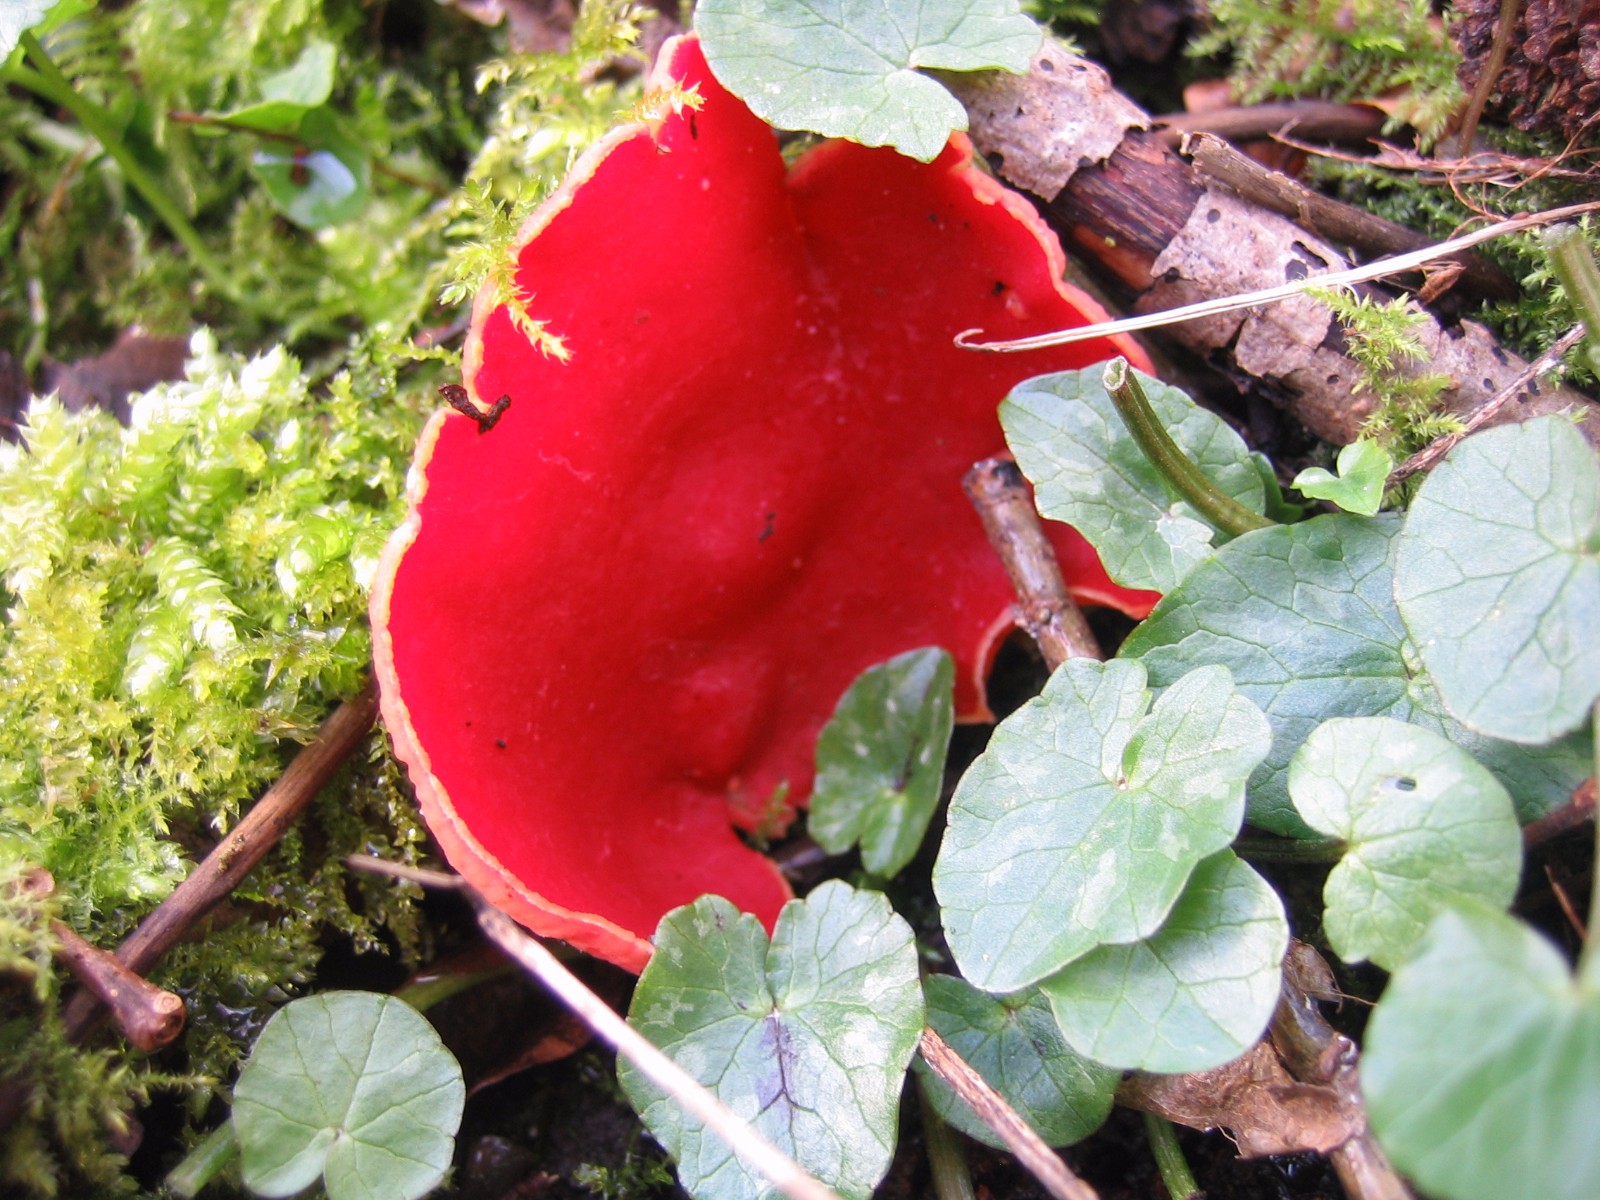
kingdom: Fungi
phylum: Ascomycota
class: Pezizomycetes
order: Pezizales
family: Sarcoscyphaceae
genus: Sarcoscypha
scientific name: Sarcoscypha austriaca
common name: krølhåret pragtbæger
